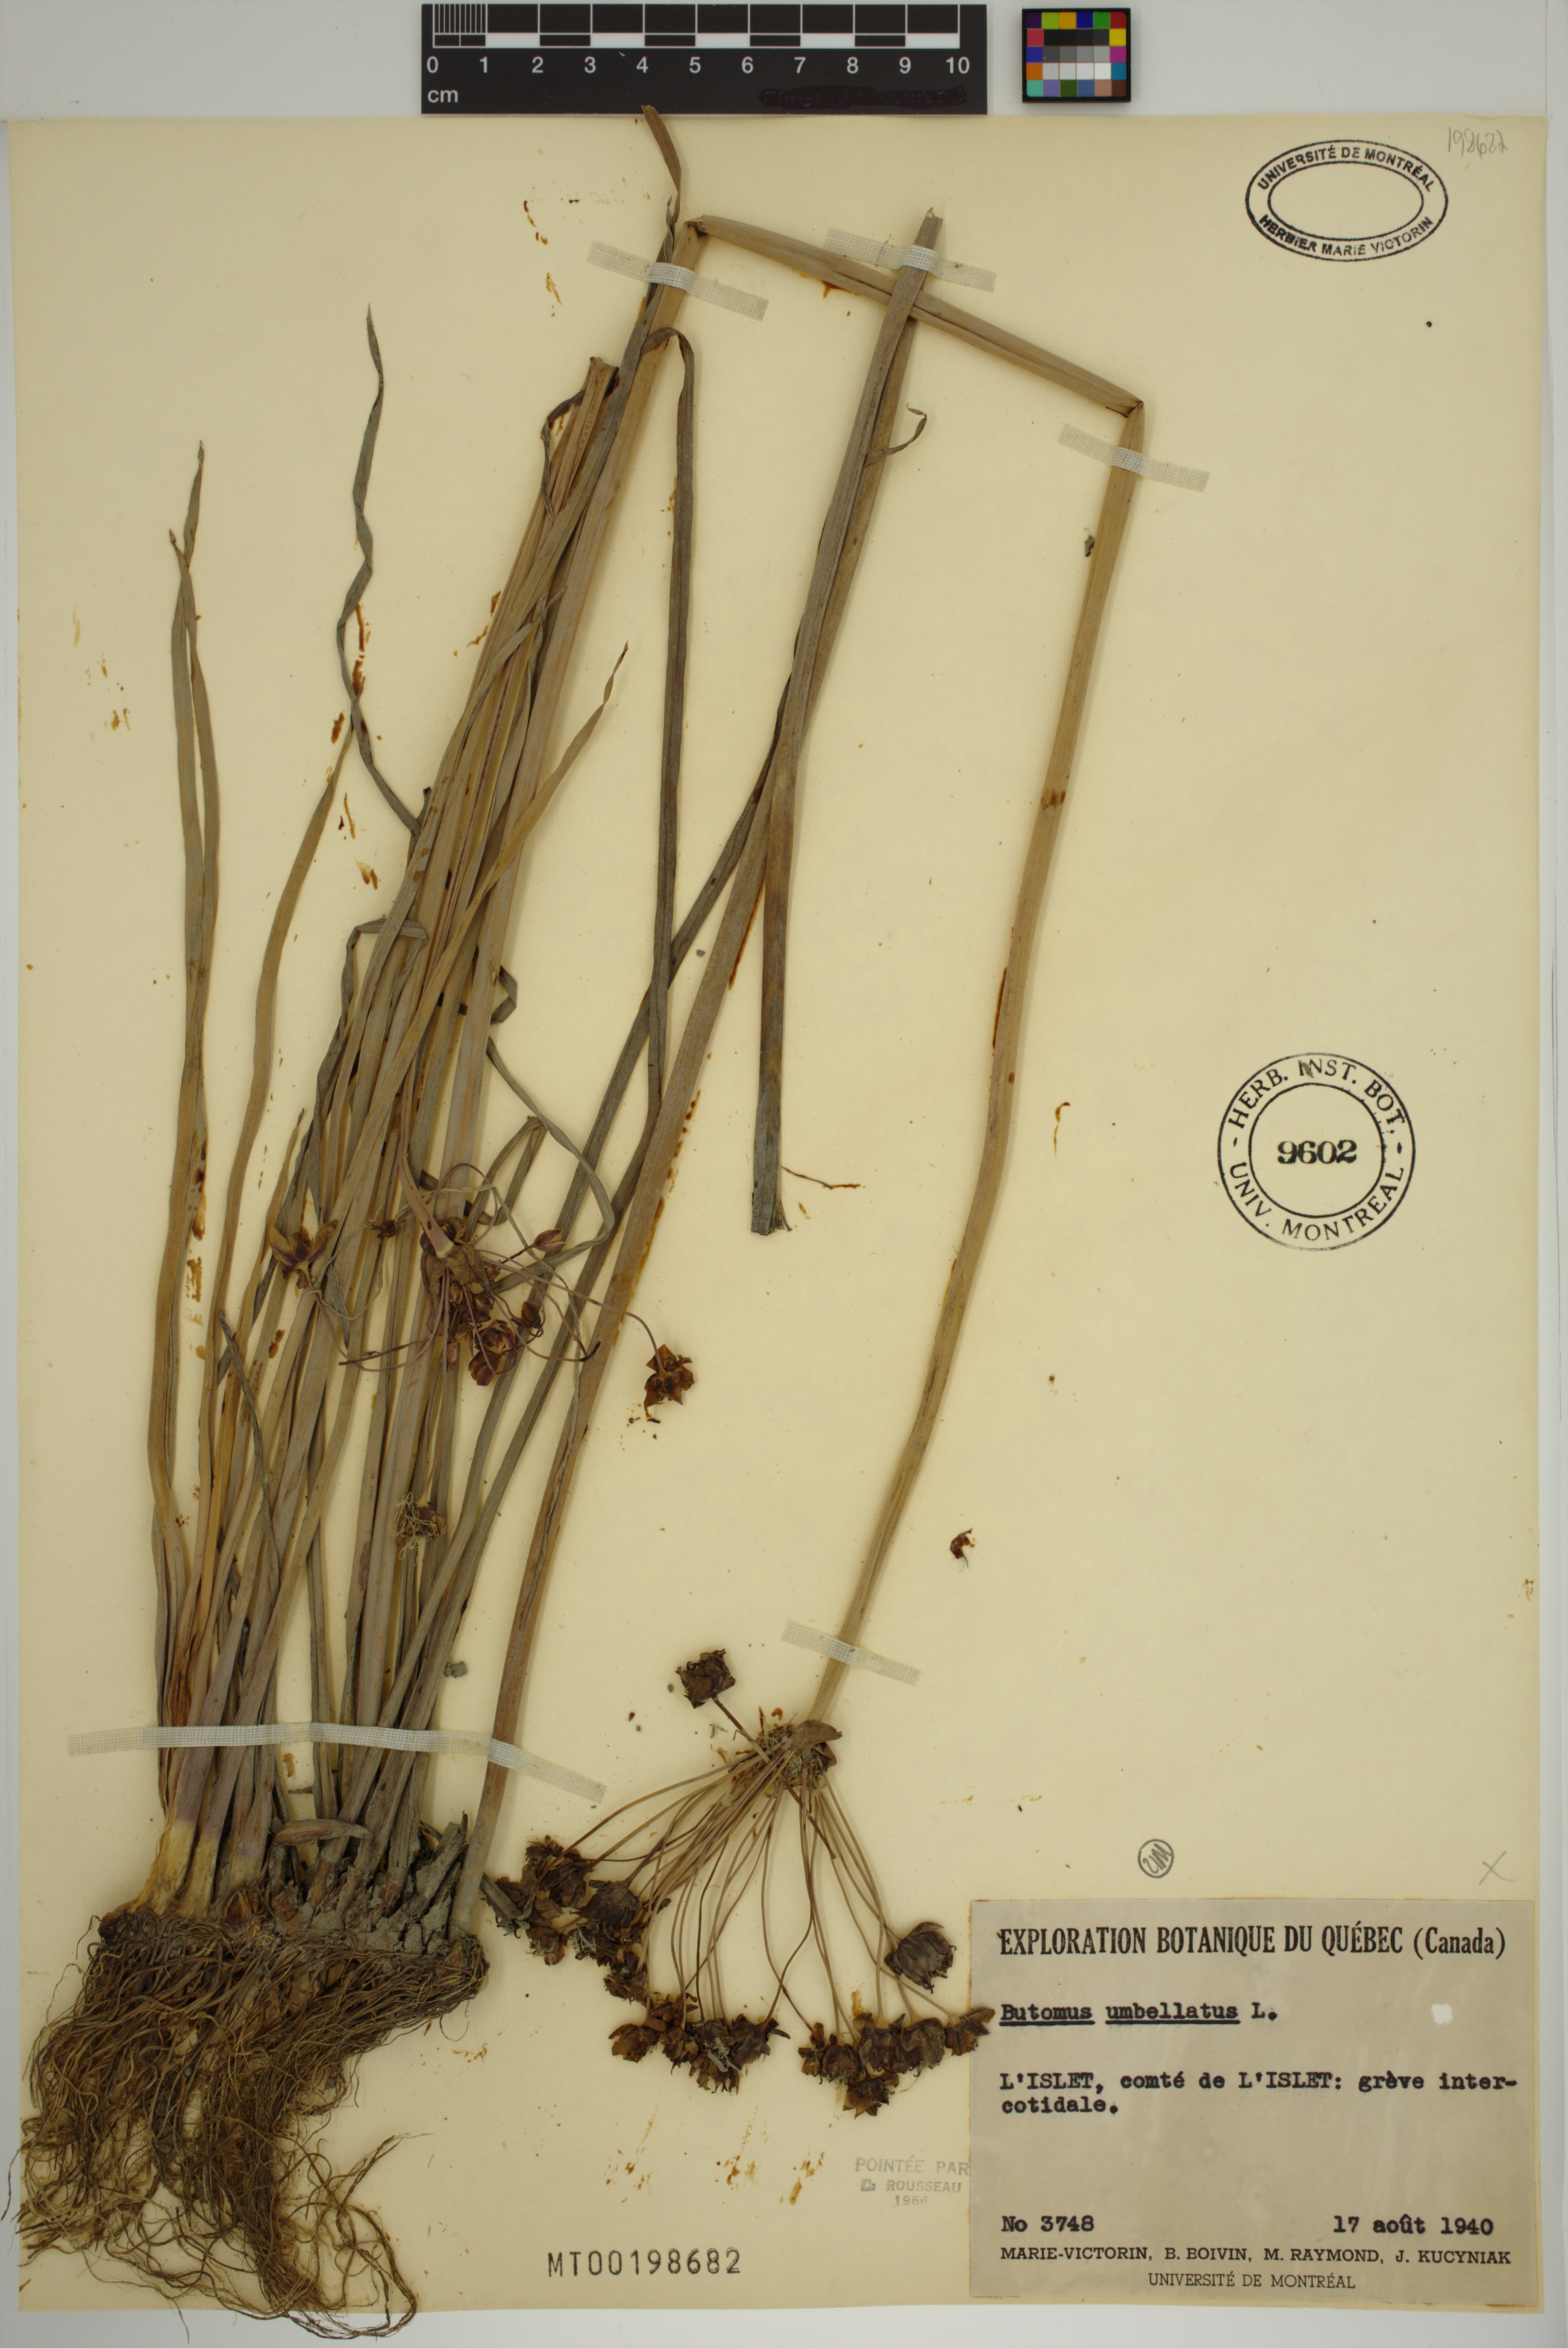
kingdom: Plantae
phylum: Tracheophyta
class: Liliopsida
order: Alismatales
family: Butomaceae
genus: Butomus
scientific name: Butomus umbellatus
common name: Flowering-rush
